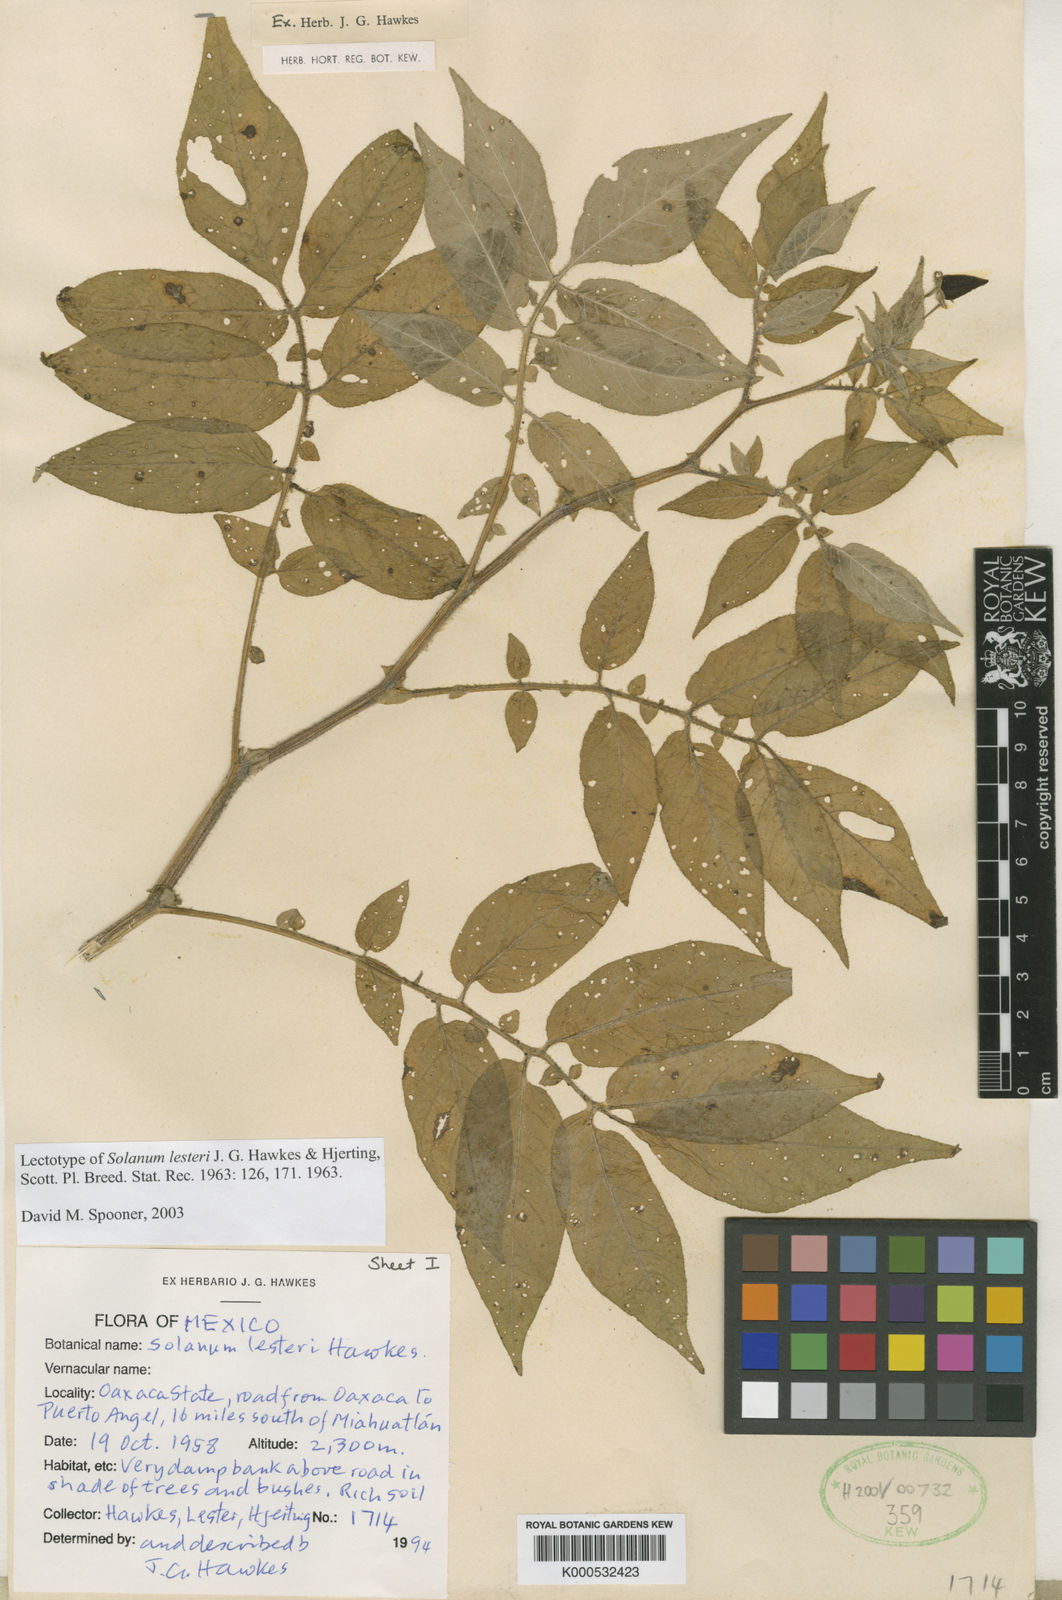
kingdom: Plantae
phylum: Tracheophyta
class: Magnoliopsida
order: Solanales
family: Solanaceae
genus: Solanum
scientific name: Solanum lesteri
